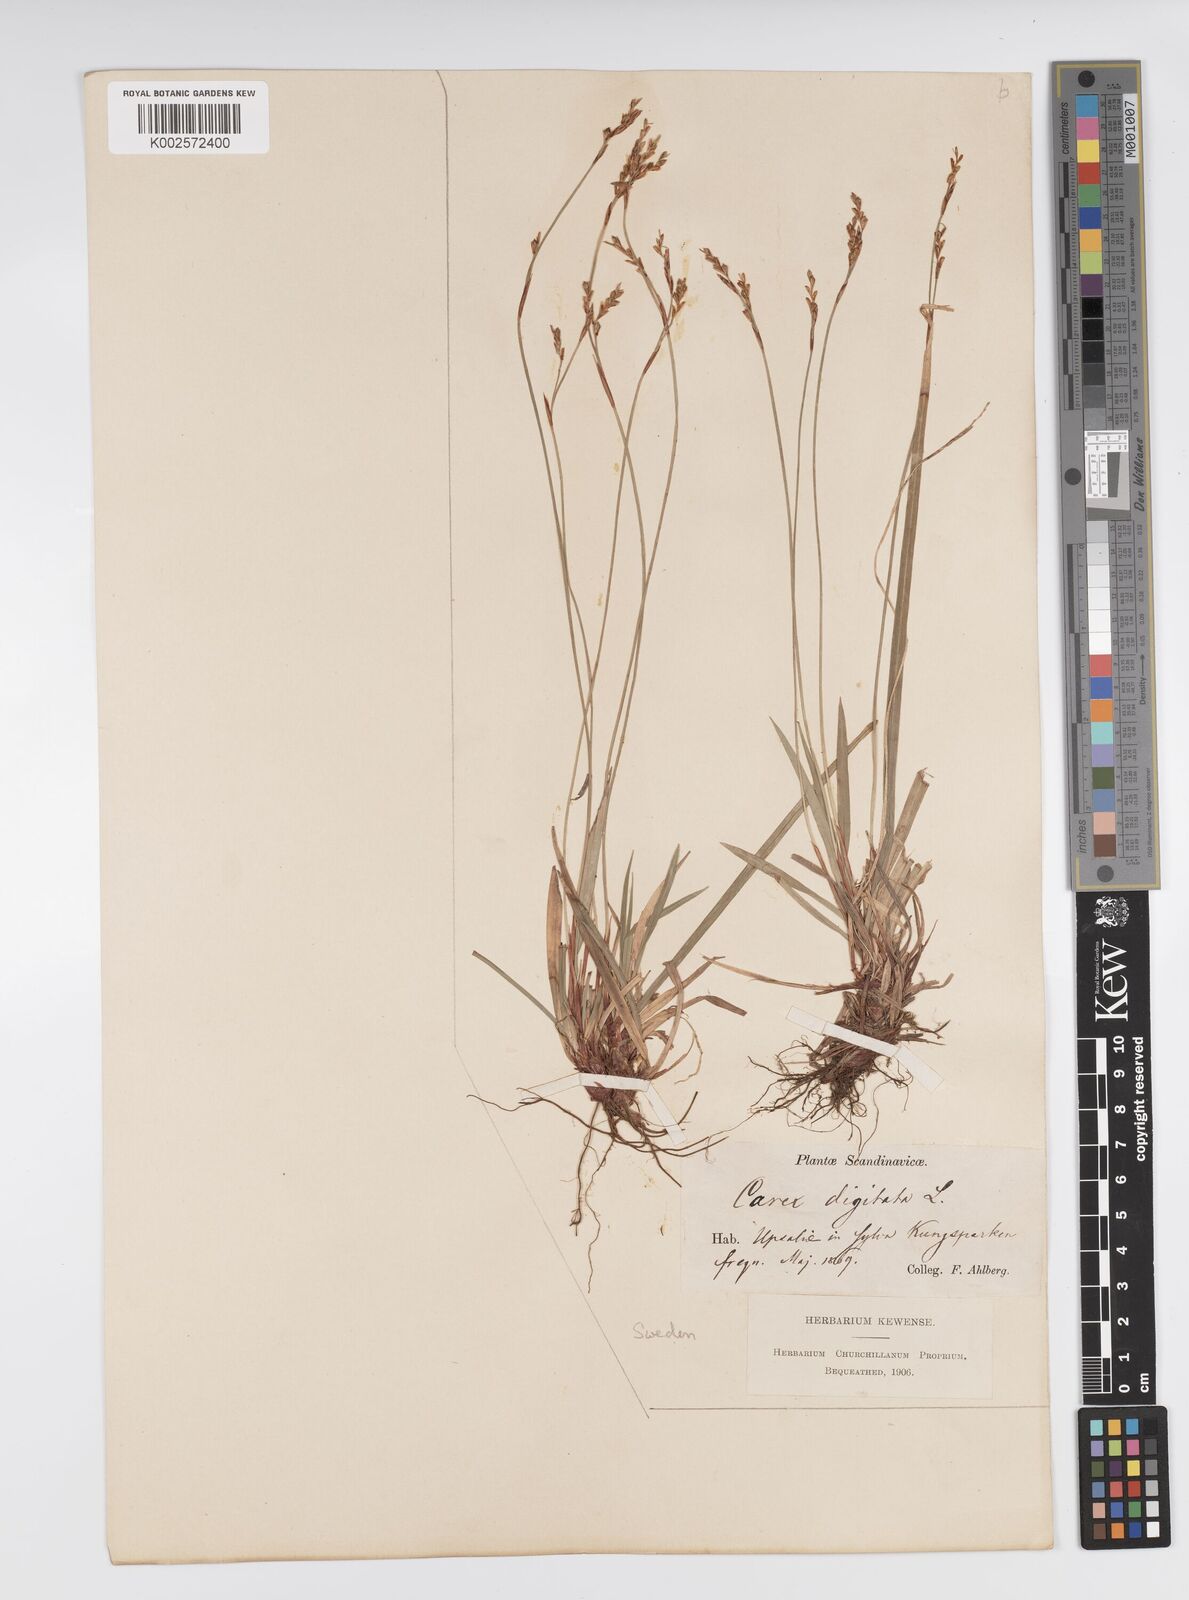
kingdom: Plantae
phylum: Tracheophyta
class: Liliopsida
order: Poales
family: Cyperaceae
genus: Carex
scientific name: Carex digitata
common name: Fingered sedge
